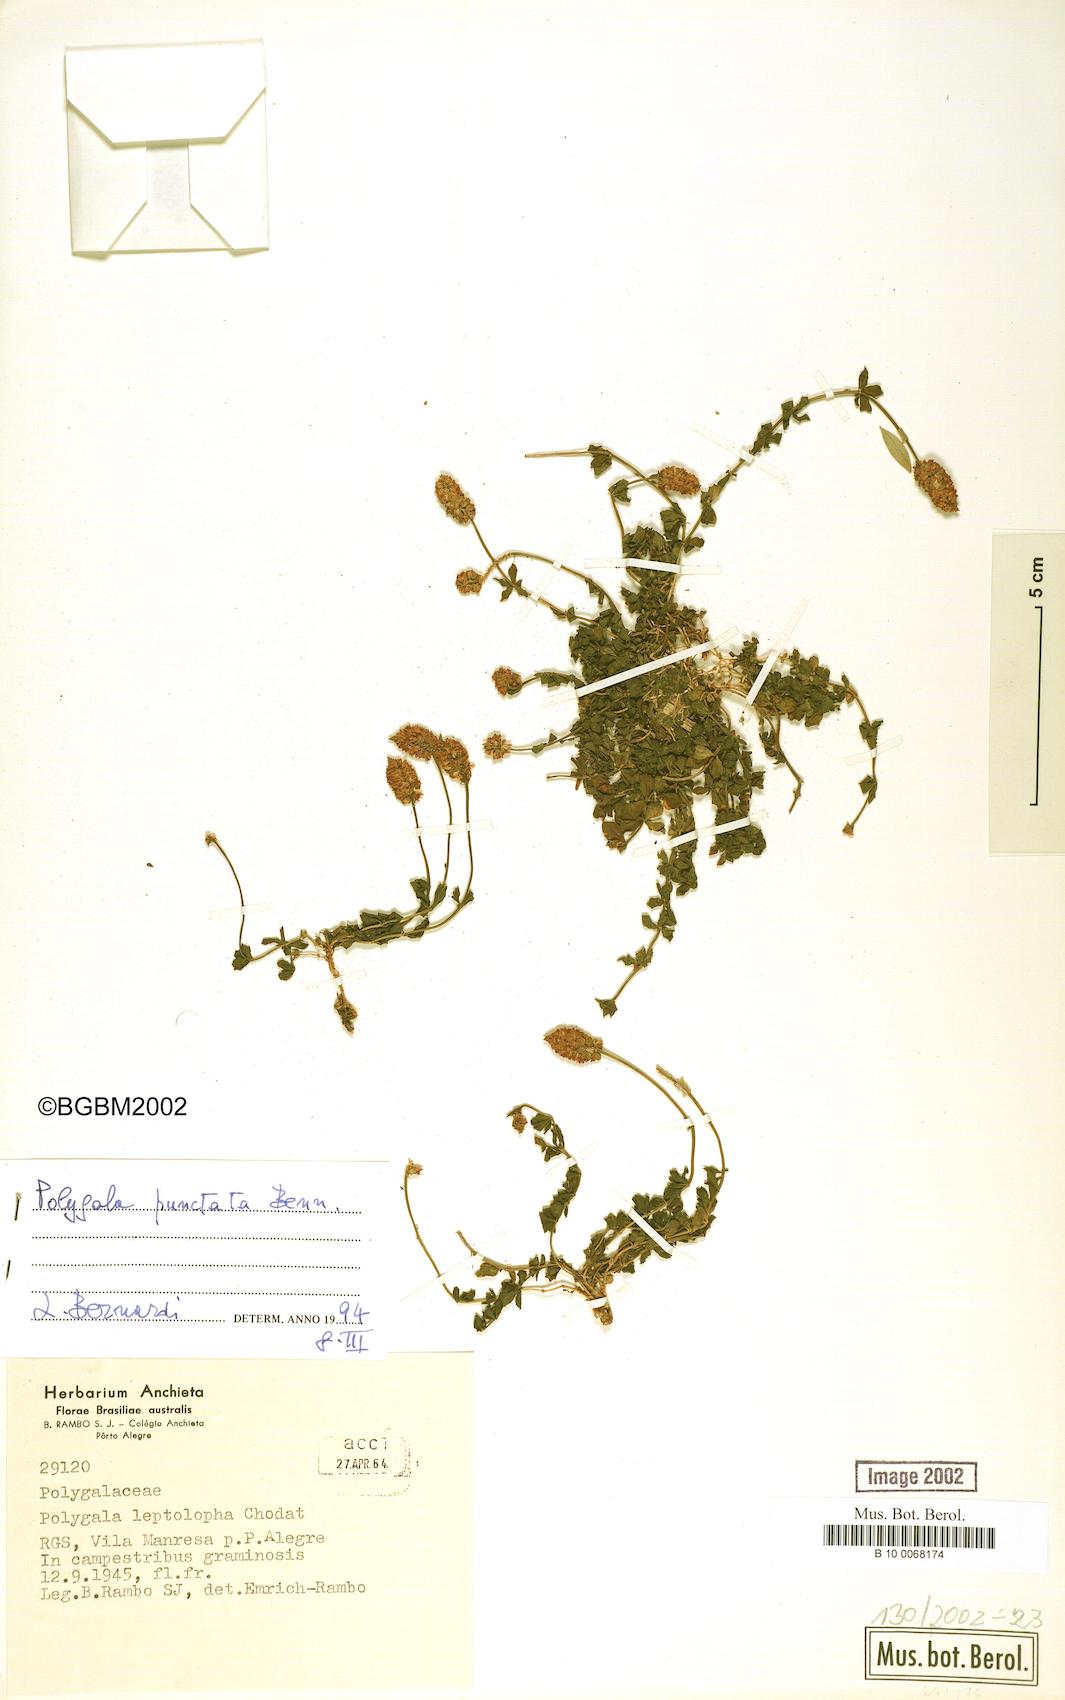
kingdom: Plantae
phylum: Tracheophyta
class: Magnoliopsida
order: Fabales
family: Polygalaceae
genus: Polygala
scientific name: Polygala punctata
